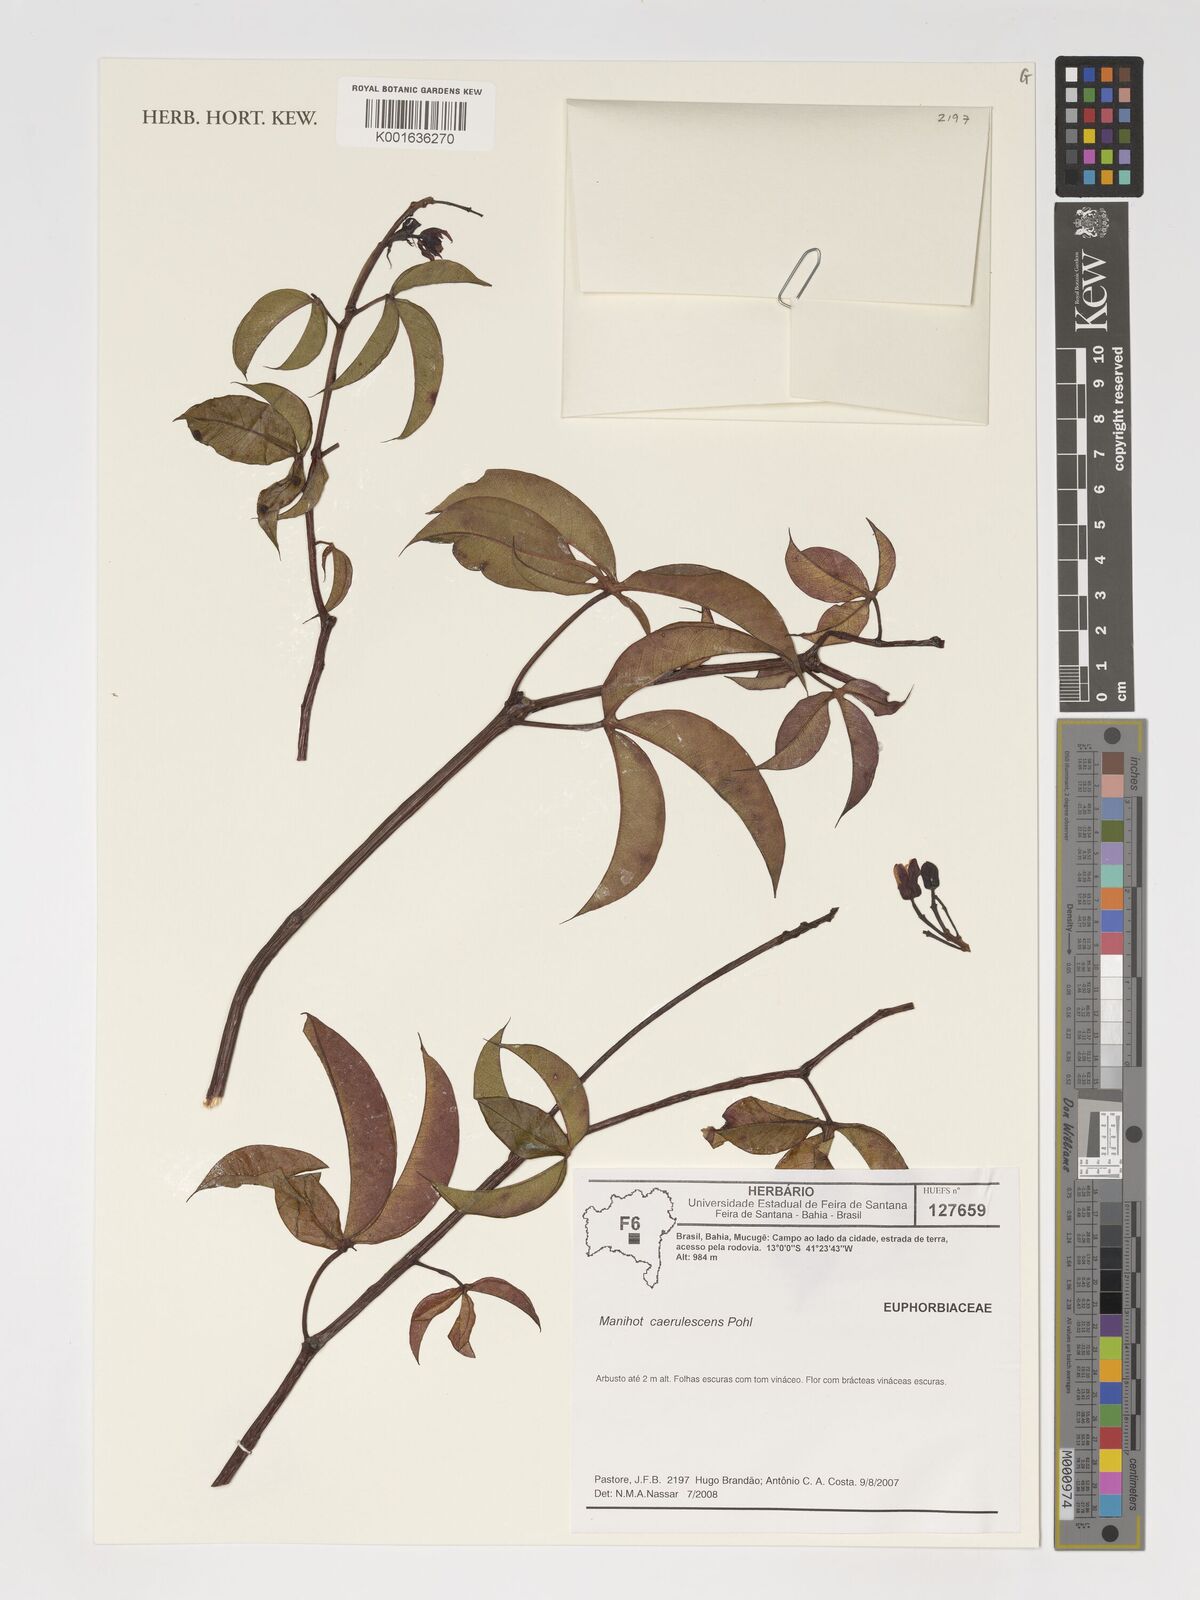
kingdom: Plantae
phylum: Tracheophyta
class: Magnoliopsida
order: Malpighiales
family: Euphorbiaceae
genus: Manihot
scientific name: Manihot caerulescens
